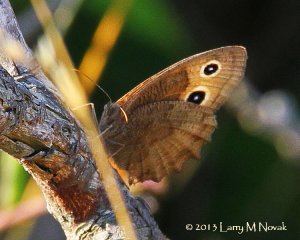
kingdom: Animalia
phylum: Arthropoda
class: Insecta
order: Lepidoptera
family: Nymphalidae
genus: Cercyonis
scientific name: Cercyonis pegala
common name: Common Wood-Nymph
